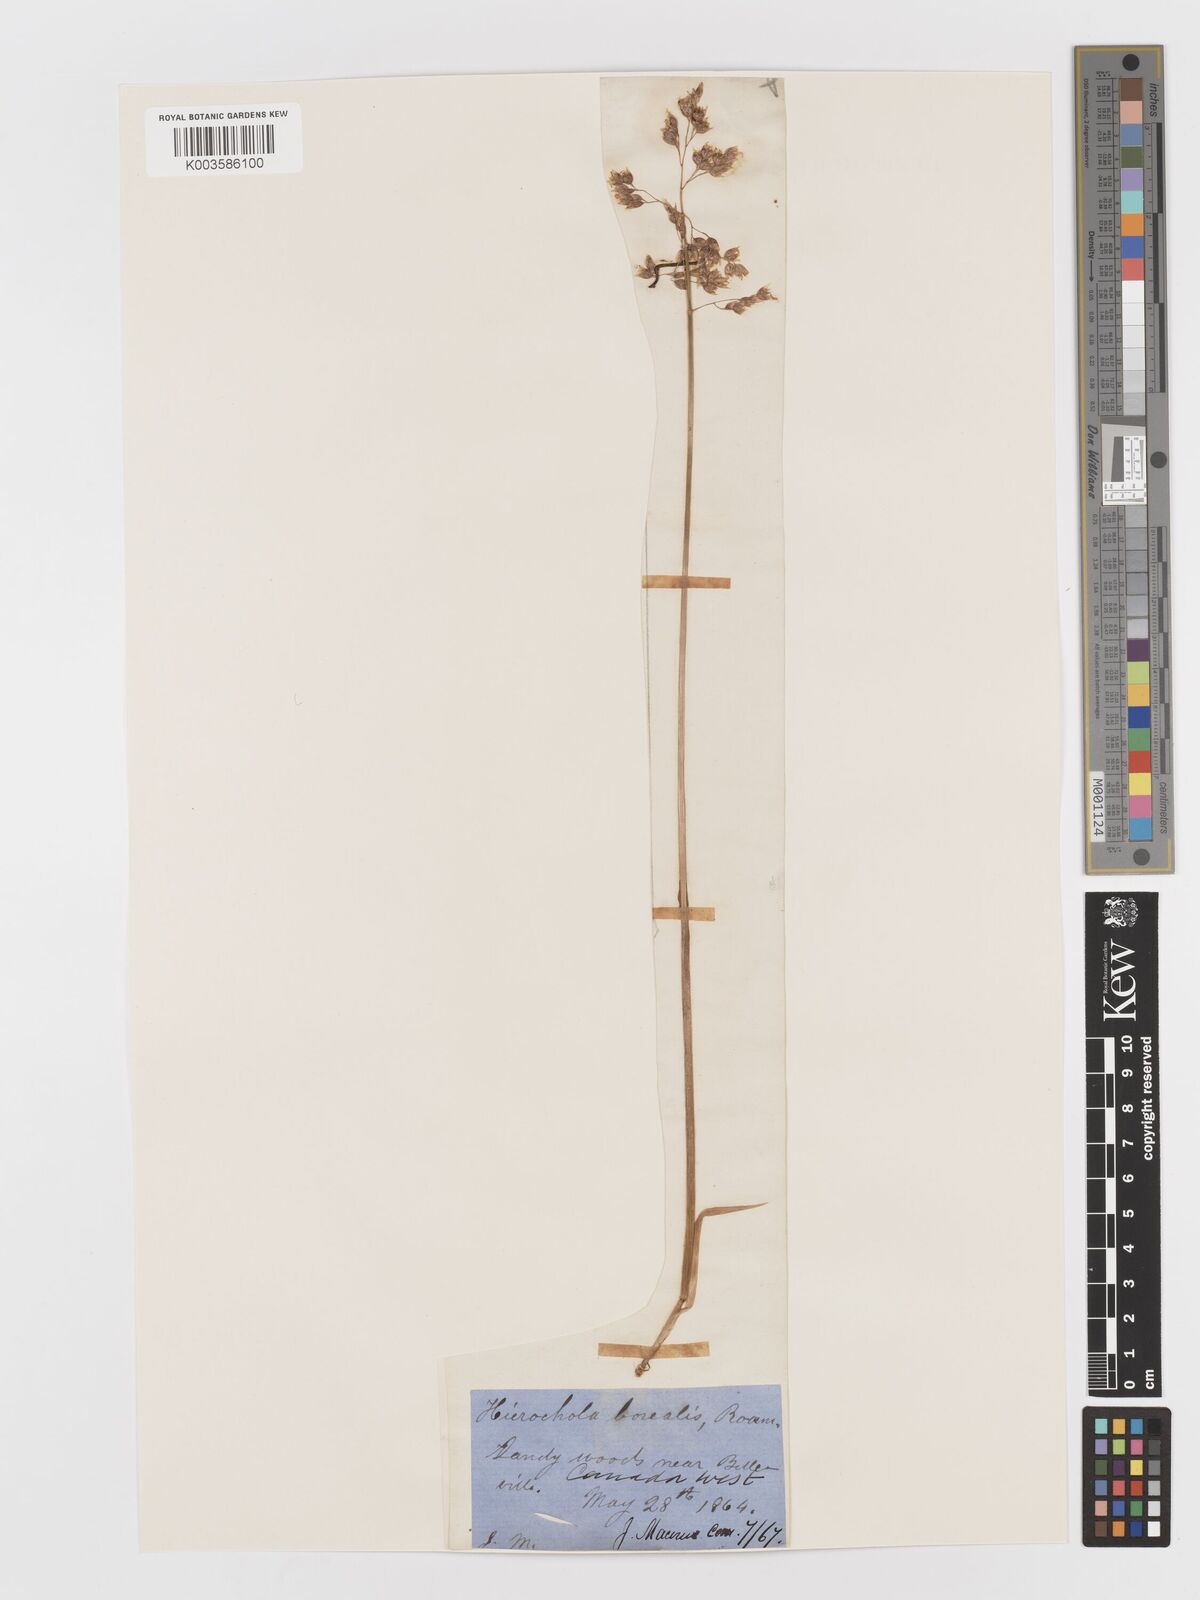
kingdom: Plantae
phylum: Tracheophyta
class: Liliopsida
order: Poales
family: Poaceae
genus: Anthoxanthum
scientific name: Anthoxanthum nitens
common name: Holy grass
